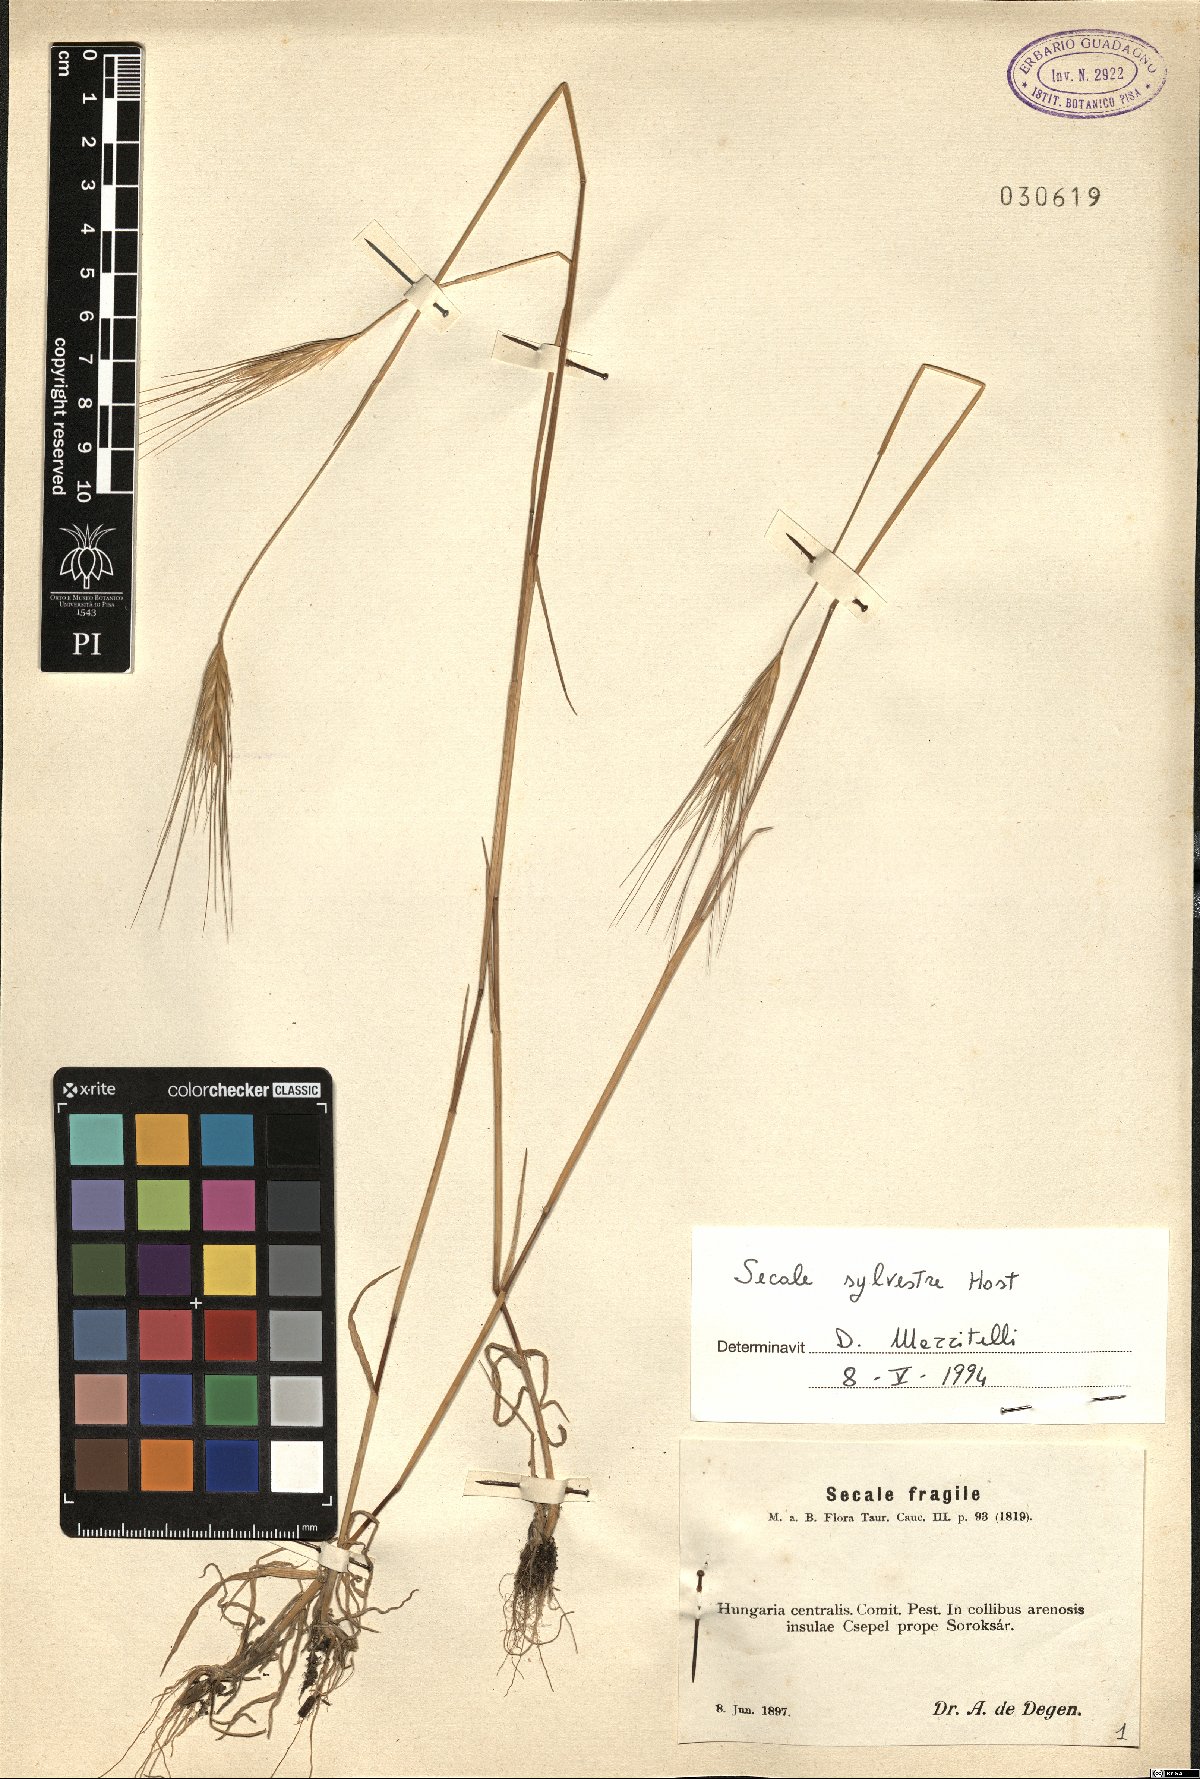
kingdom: Plantae
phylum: Tracheophyta
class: Liliopsida
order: Poales
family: Poaceae
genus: Secale
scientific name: Secale sylvestre
